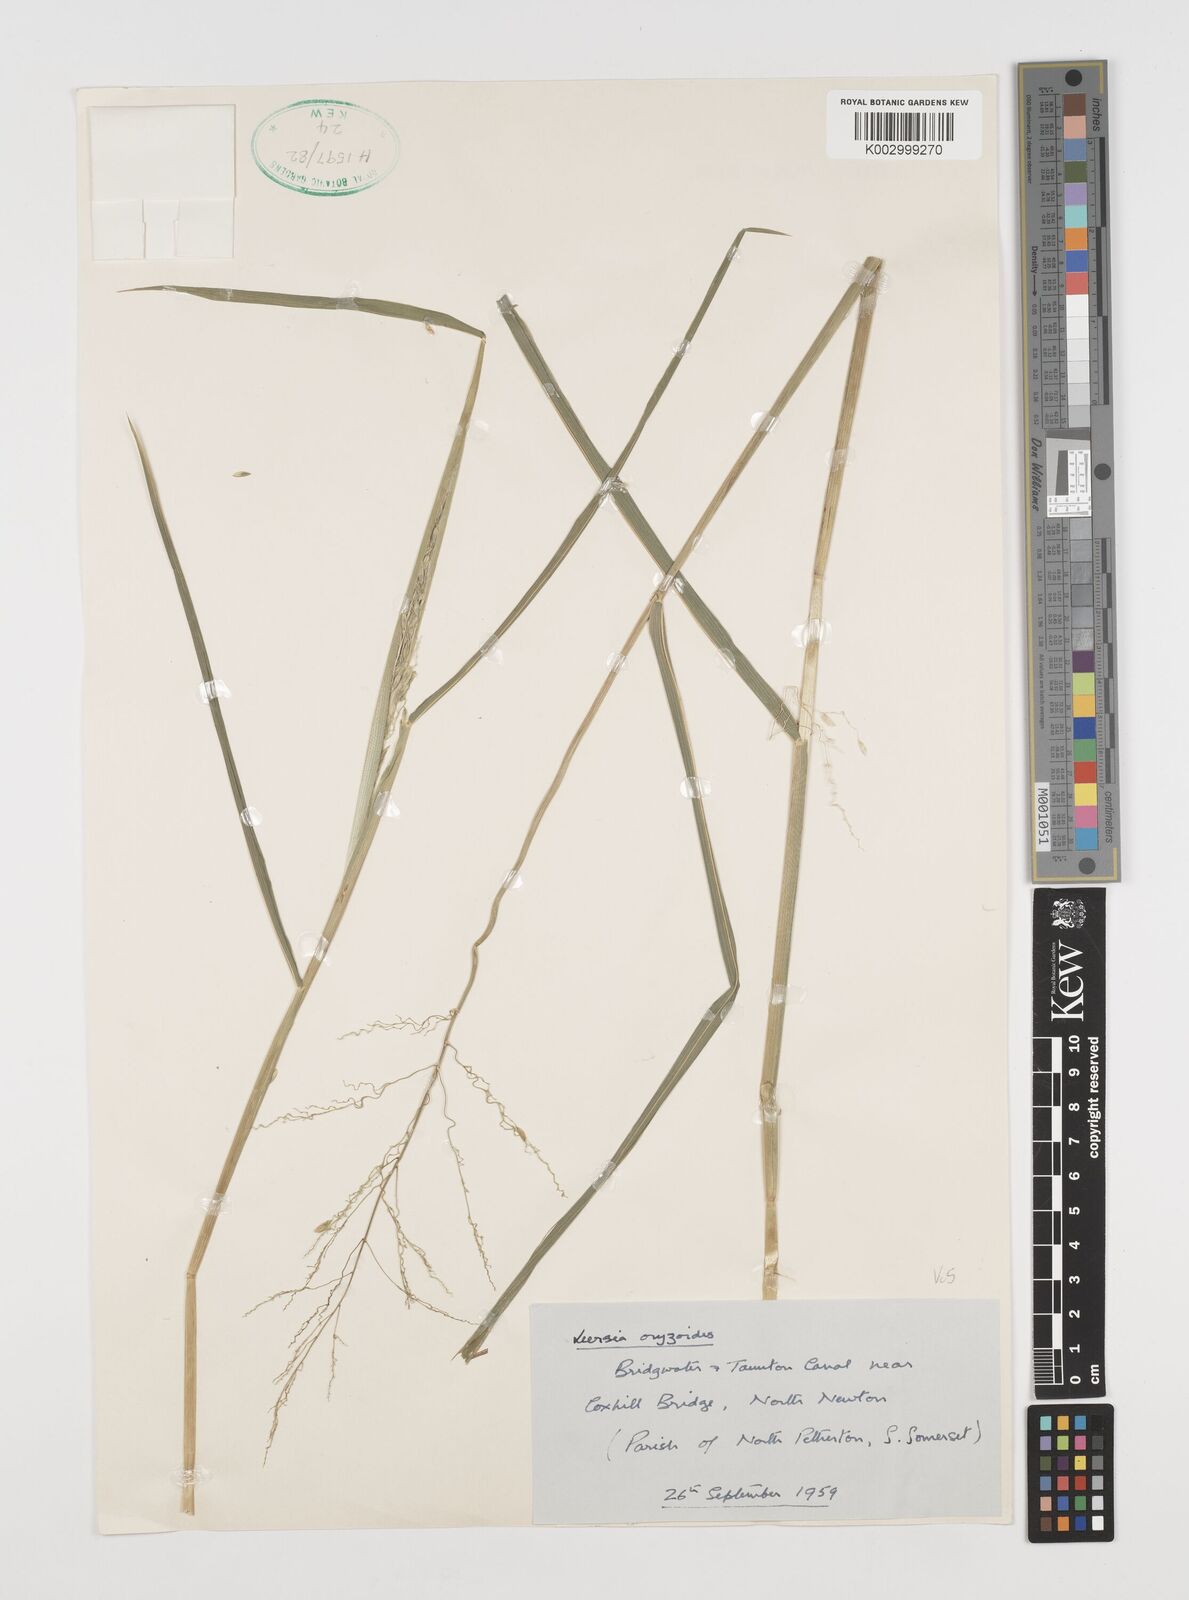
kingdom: Plantae
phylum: Tracheophyta
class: Liliopsida
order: Poales
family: Poaceae
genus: Leersia
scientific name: Leersia oryzoides
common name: Cut-grass
